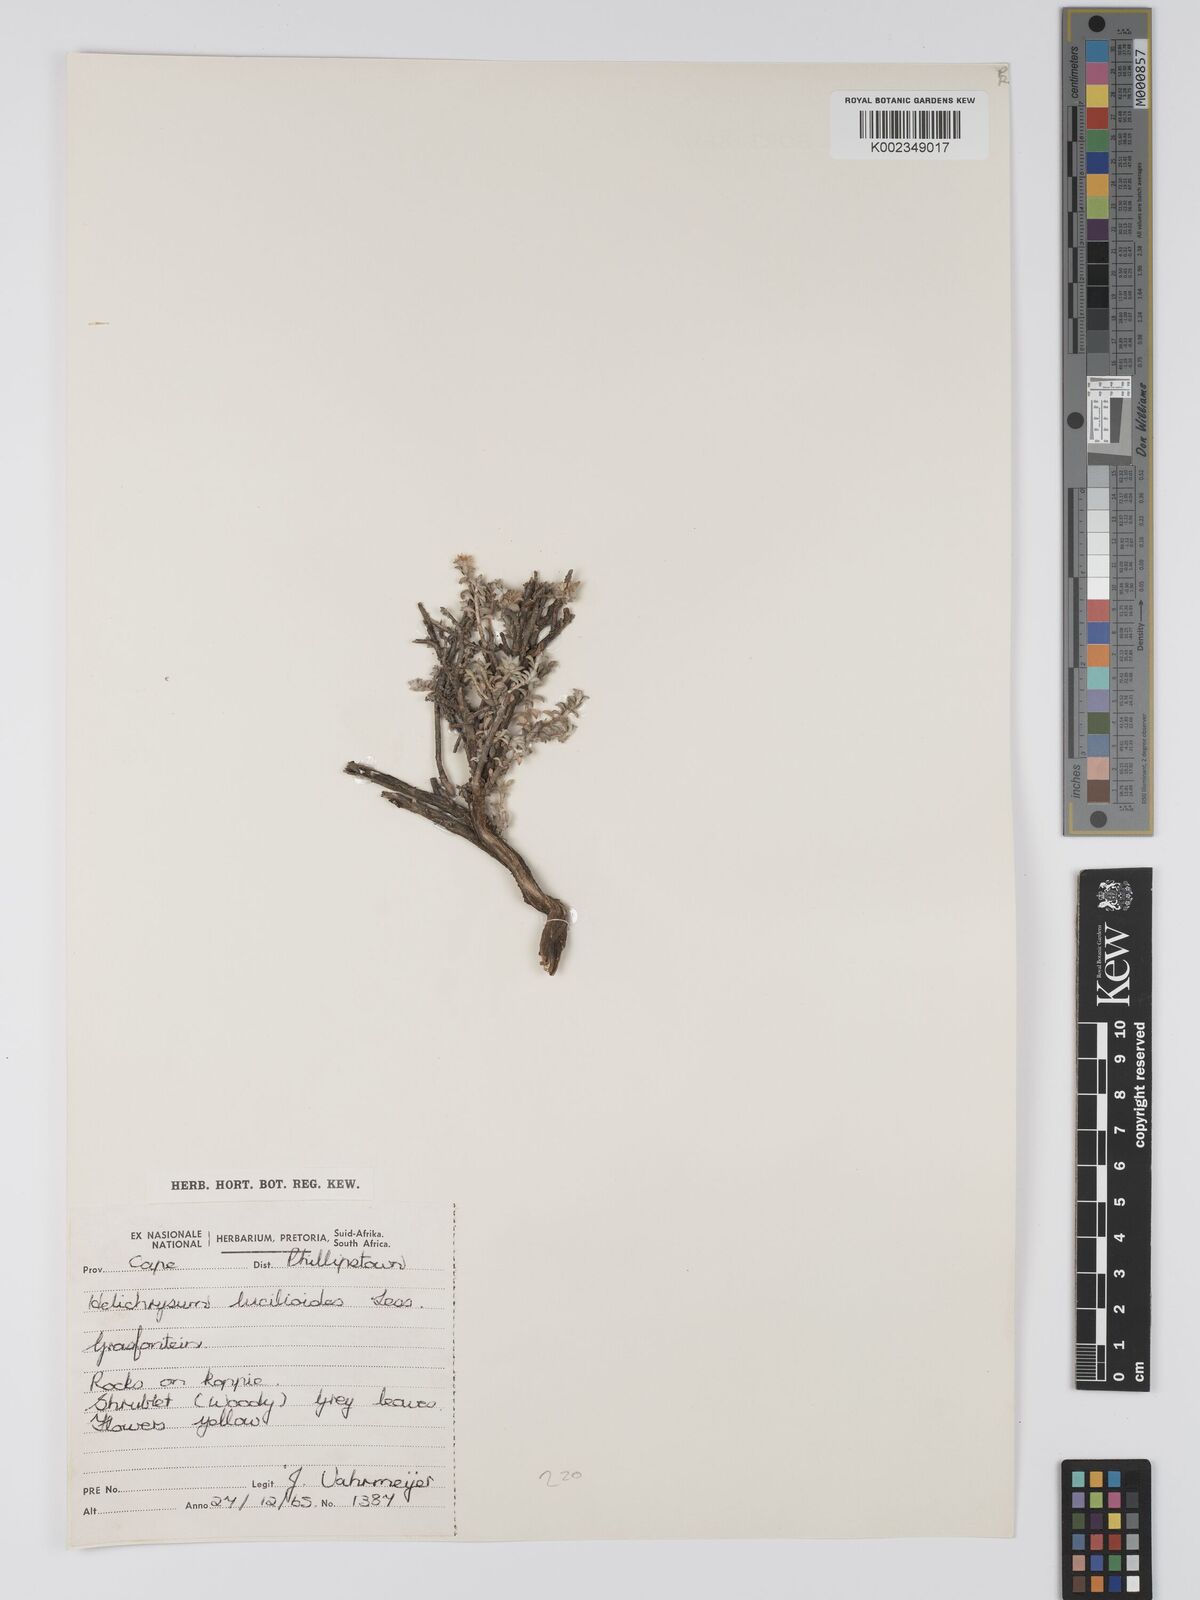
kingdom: Plantae
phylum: Tracheophyta
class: Magnoliopsida
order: Asterales
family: Asteraceae
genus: Helichrysum
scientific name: Helichrysum lucilioides
